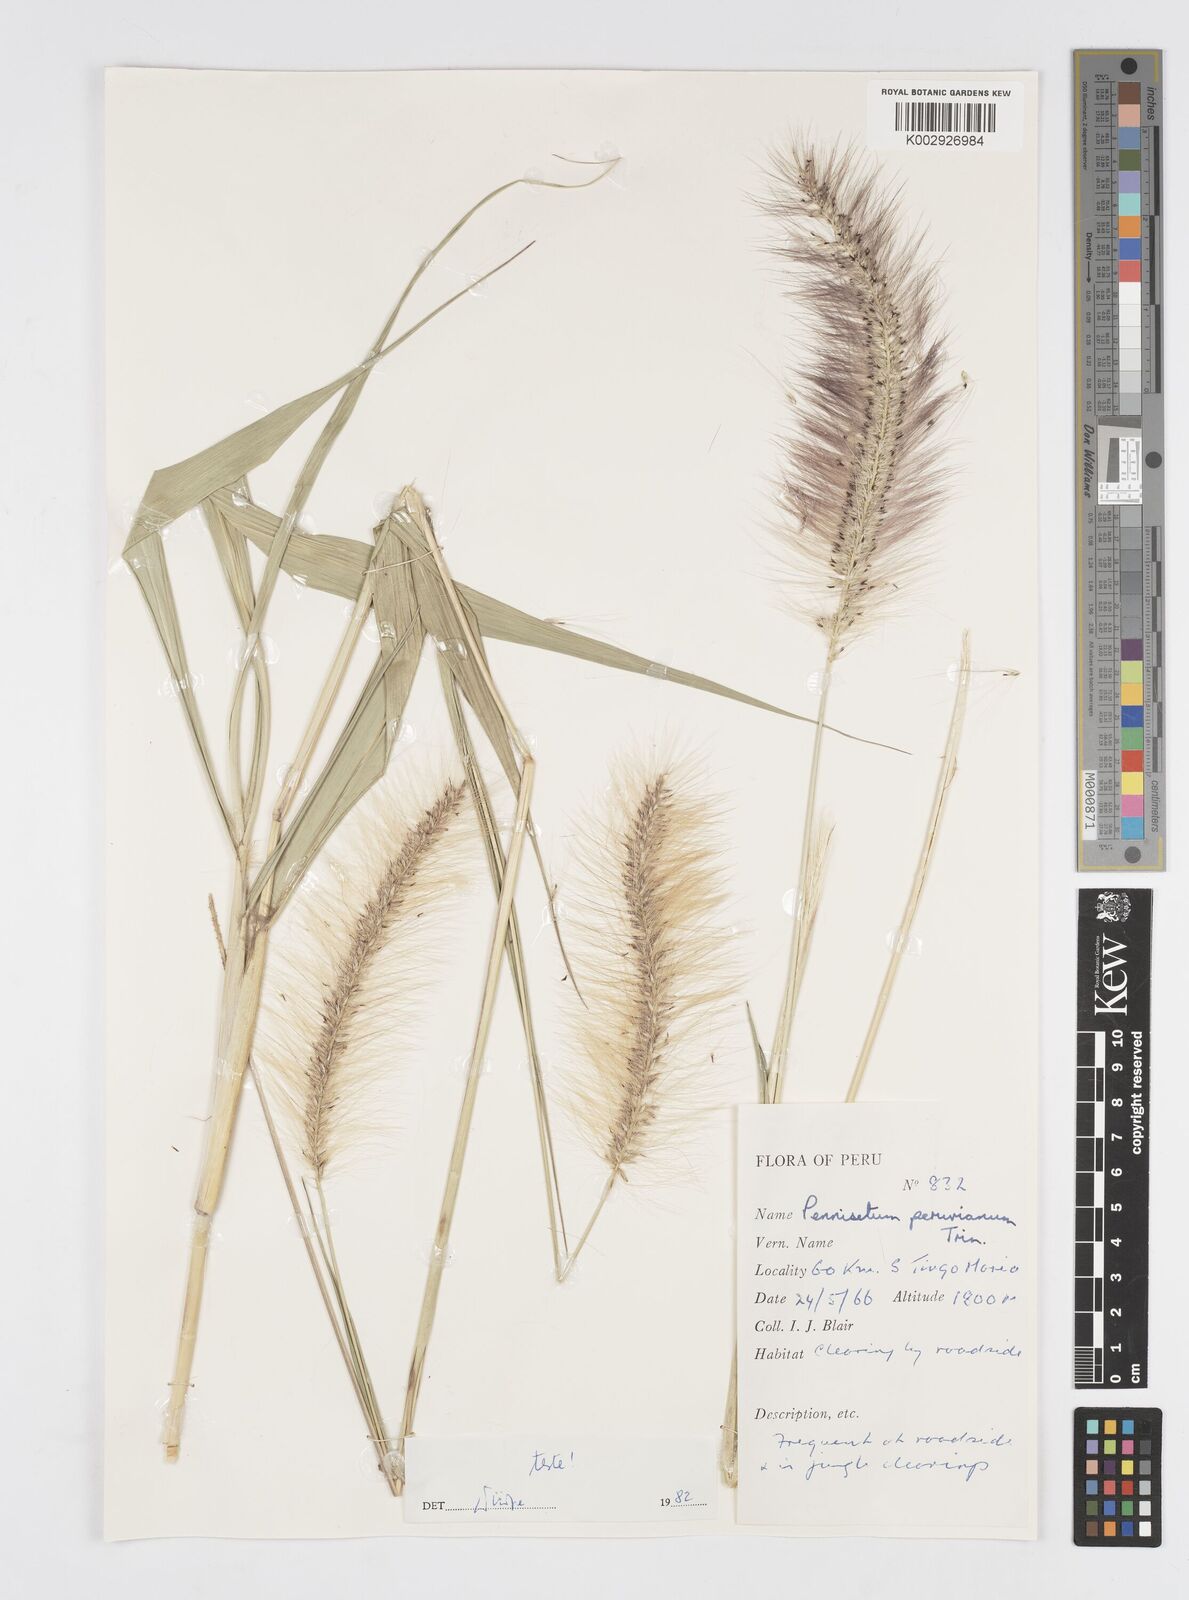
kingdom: Plantae
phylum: Tracheophyta
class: Liliopsida
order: Poales
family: Poaceae
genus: Cenchrus
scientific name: Cenchrus peruvianus
